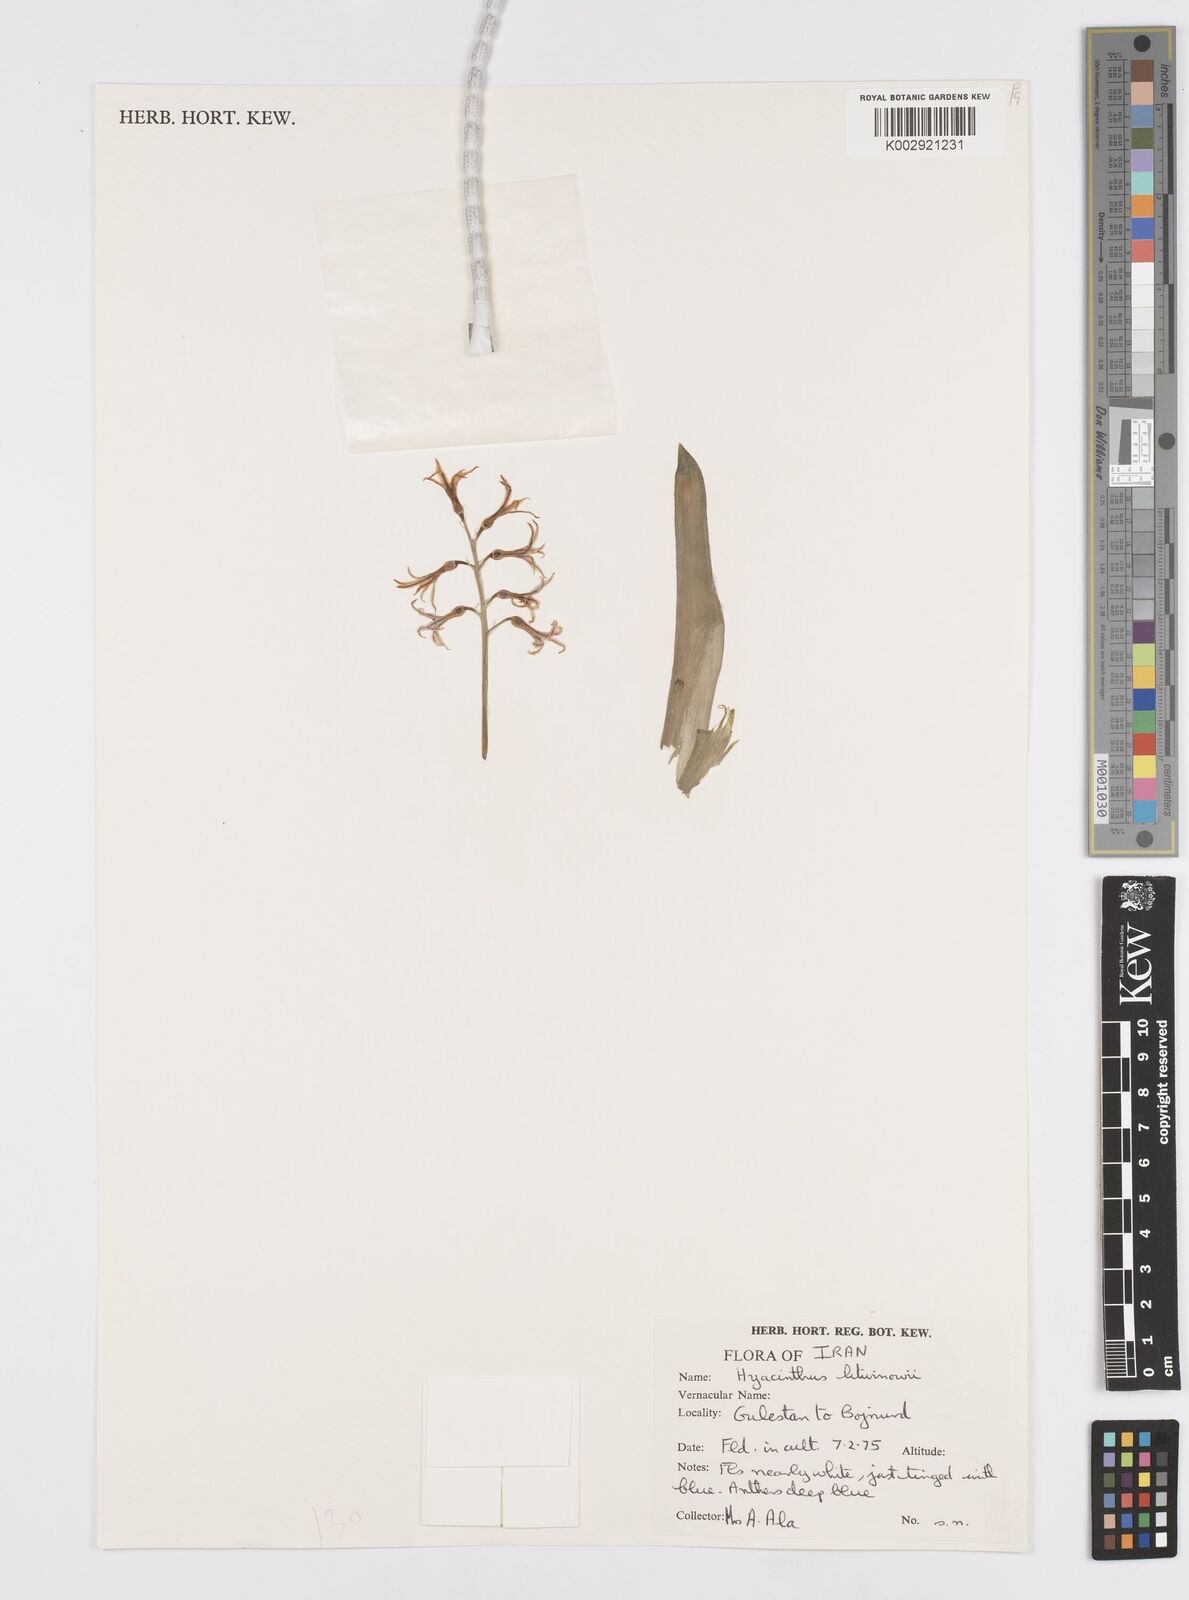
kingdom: Plantae
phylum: Tracheophyta
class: Liliopsida
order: Asparagales
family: Asparagaceae
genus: Hyacinthus
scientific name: Hyacinthus litwinowii
